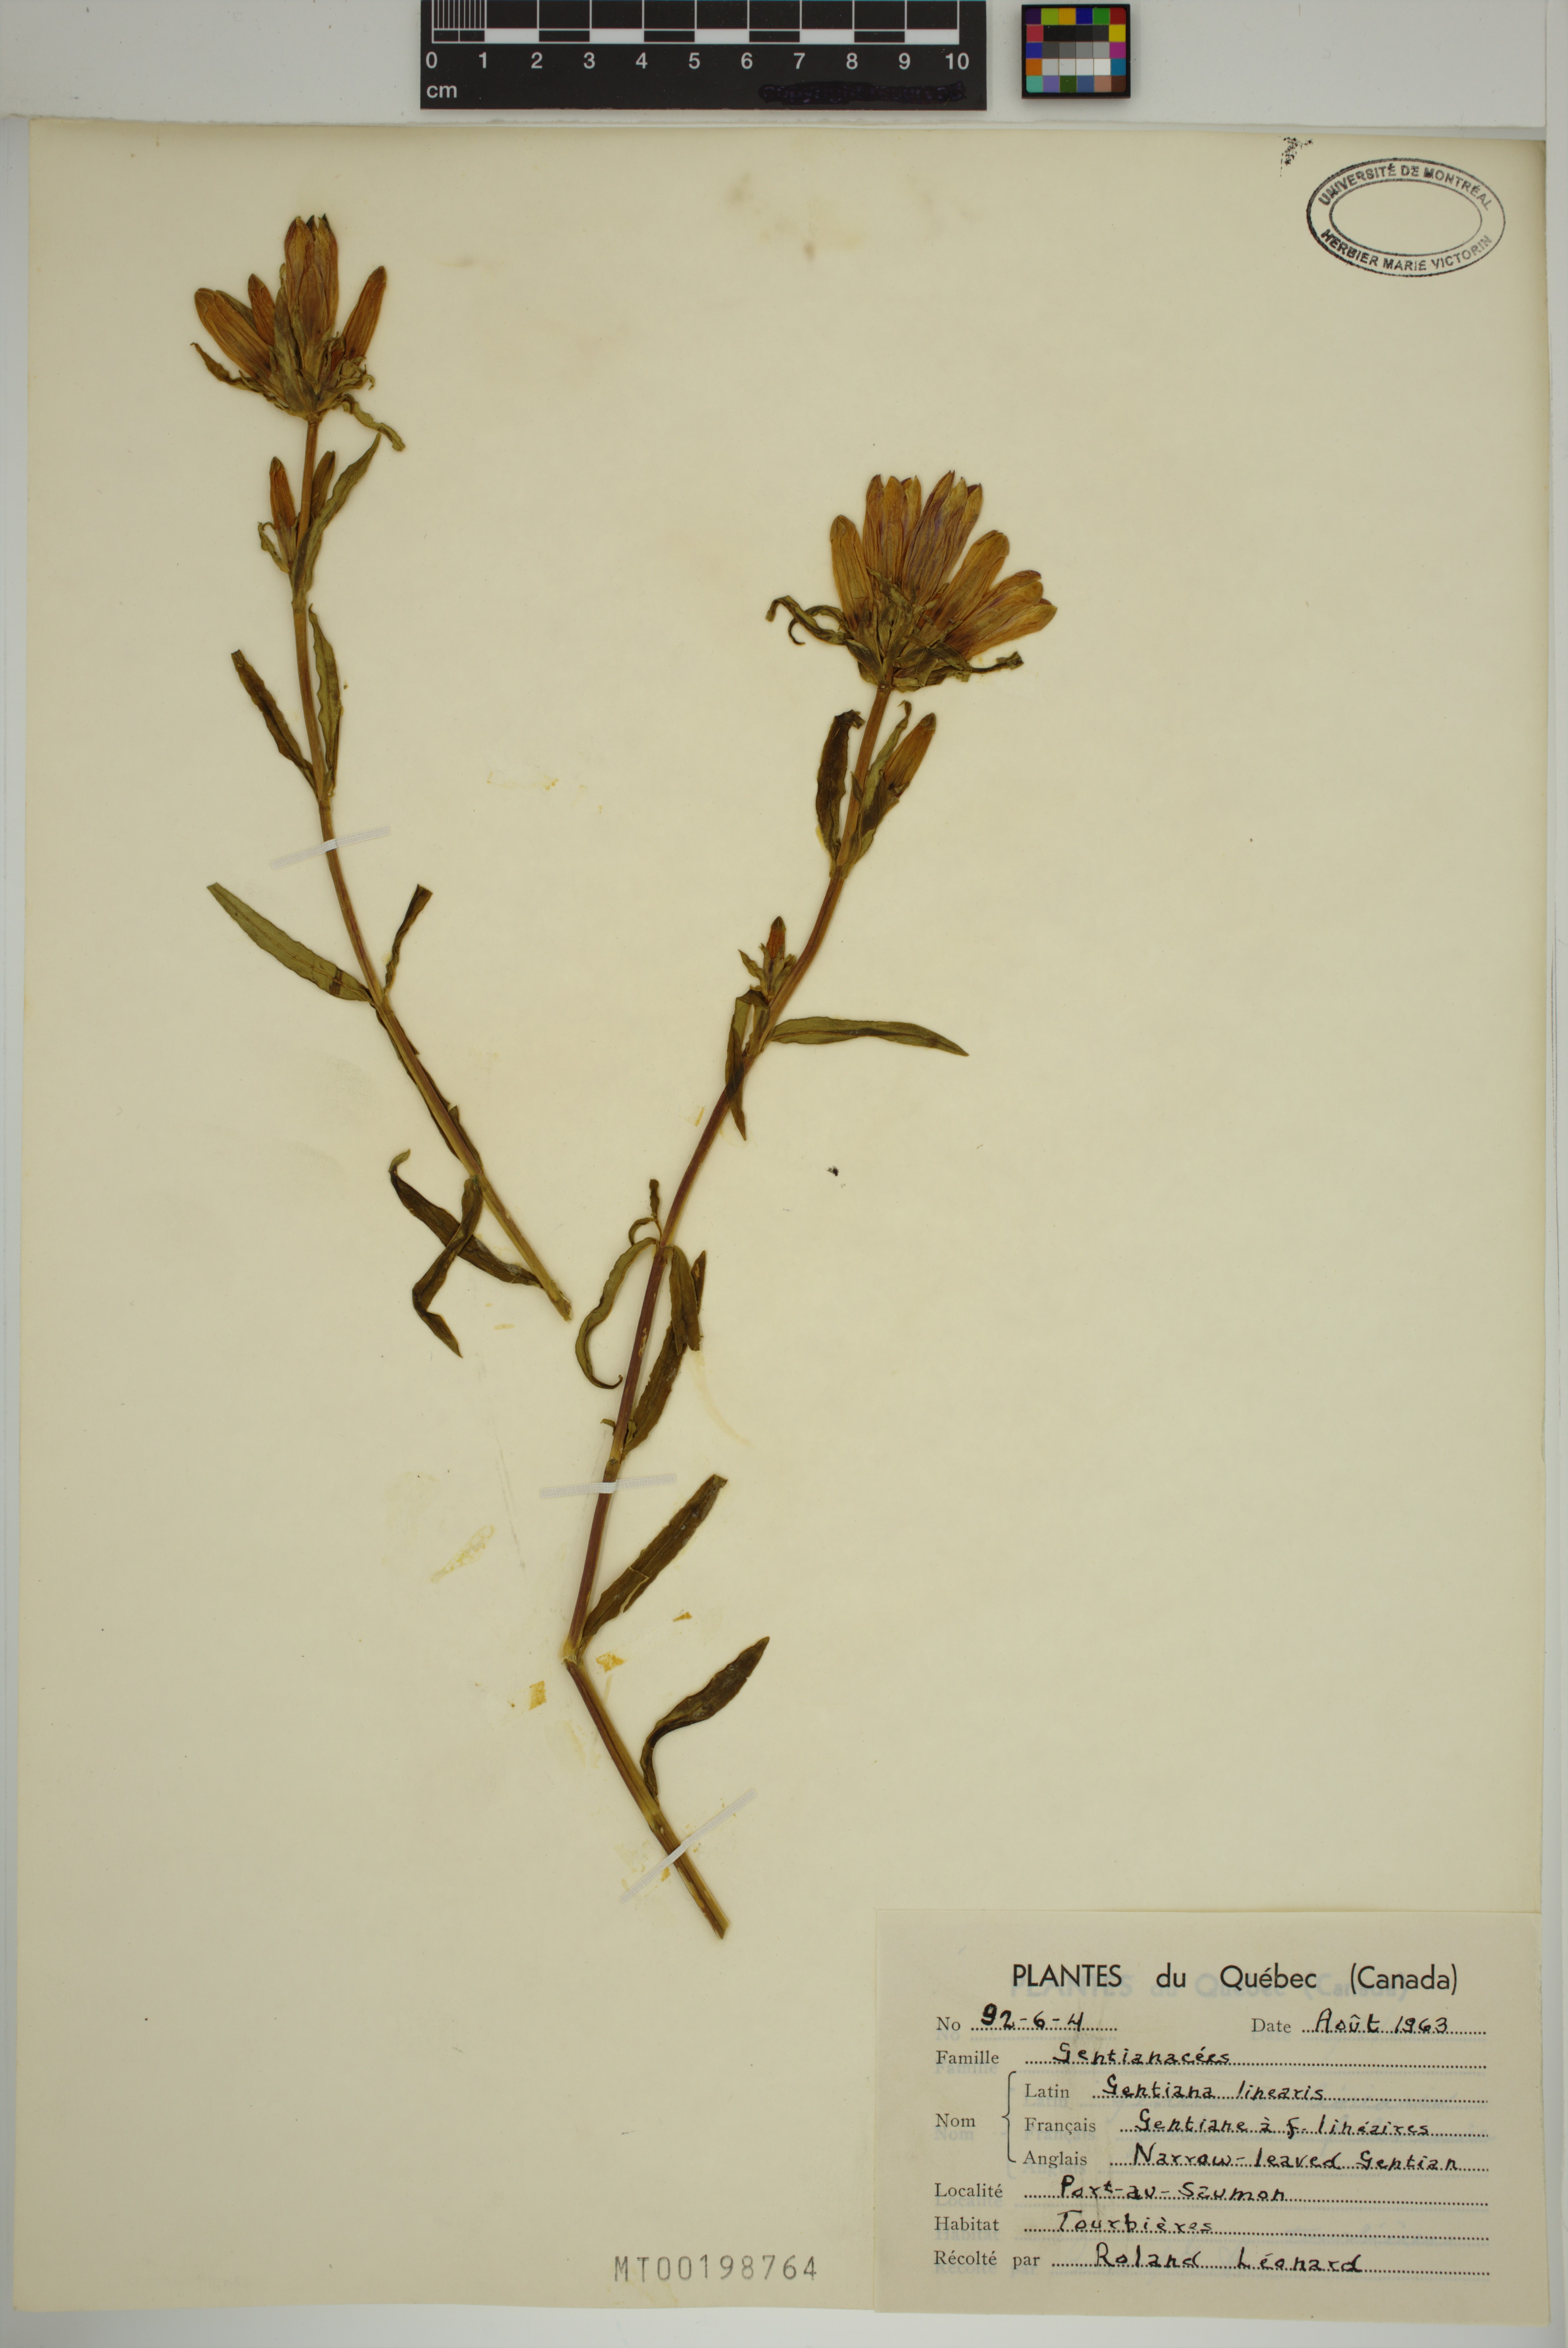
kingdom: Plantae
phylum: Tracheophyta
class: Magnoliopsida
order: Gentianales
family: Gentianaceae
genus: Gentiana
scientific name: Gentiana linearis
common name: Bastard gentian
